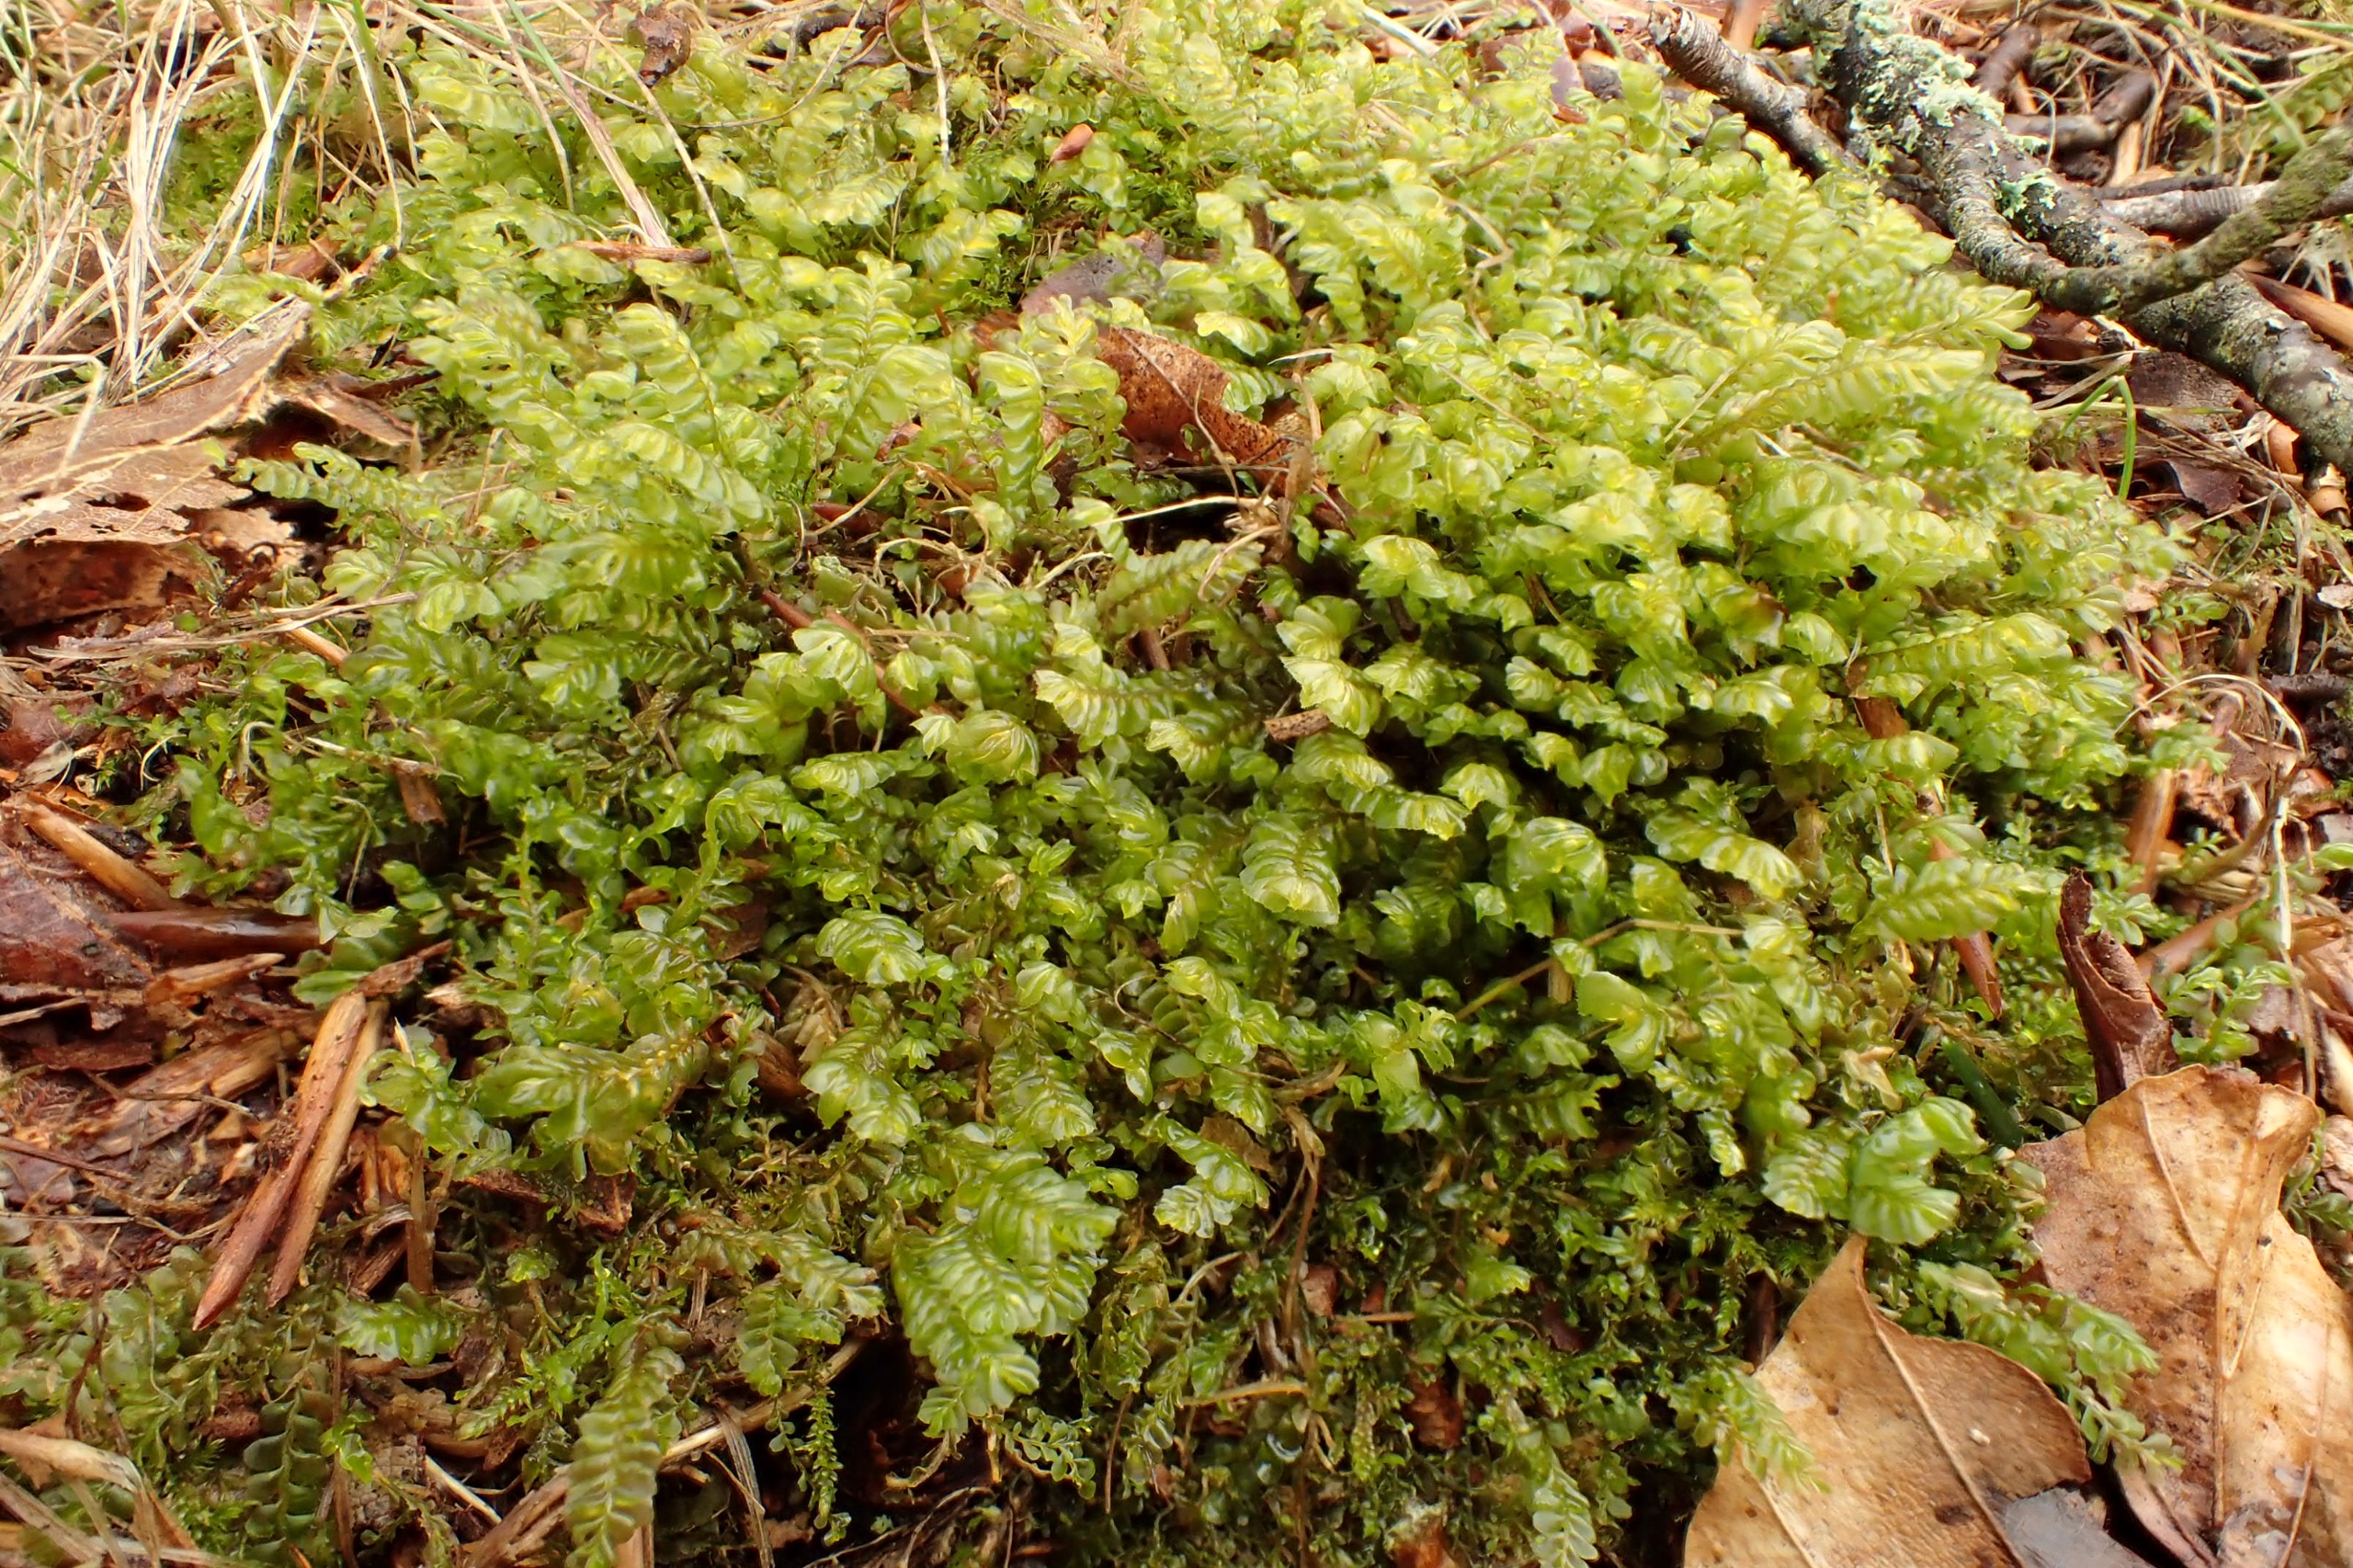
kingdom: Plantae
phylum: Marchantiophyta
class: Jungermanniopsida
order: Jungermanniales
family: Plagiochilaceae
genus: Plagiochila
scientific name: Plagiochila asplenioides
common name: Radeløv-hindeblad
